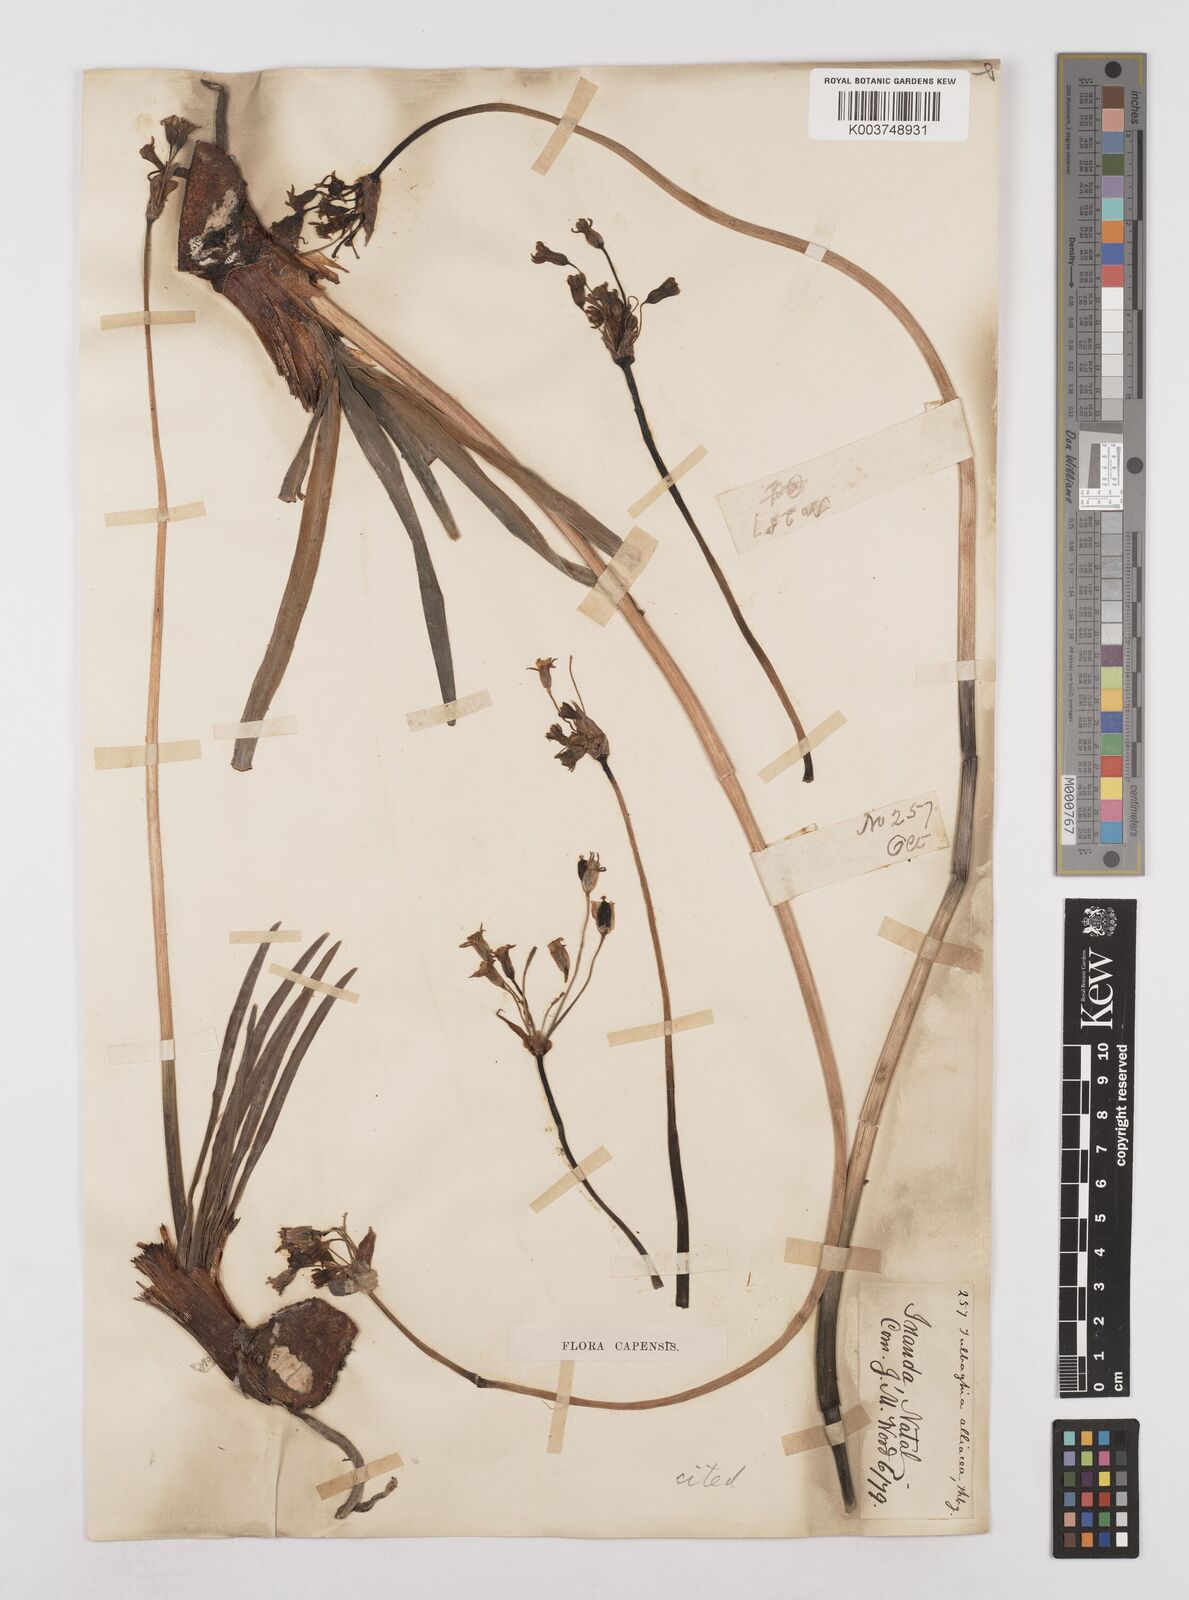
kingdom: Plantae
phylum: Tracheophyta
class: Liliopsida
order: Asparagales
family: Amaryllidaceae
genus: Tulbaghia
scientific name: Tulbaghia alliacea
